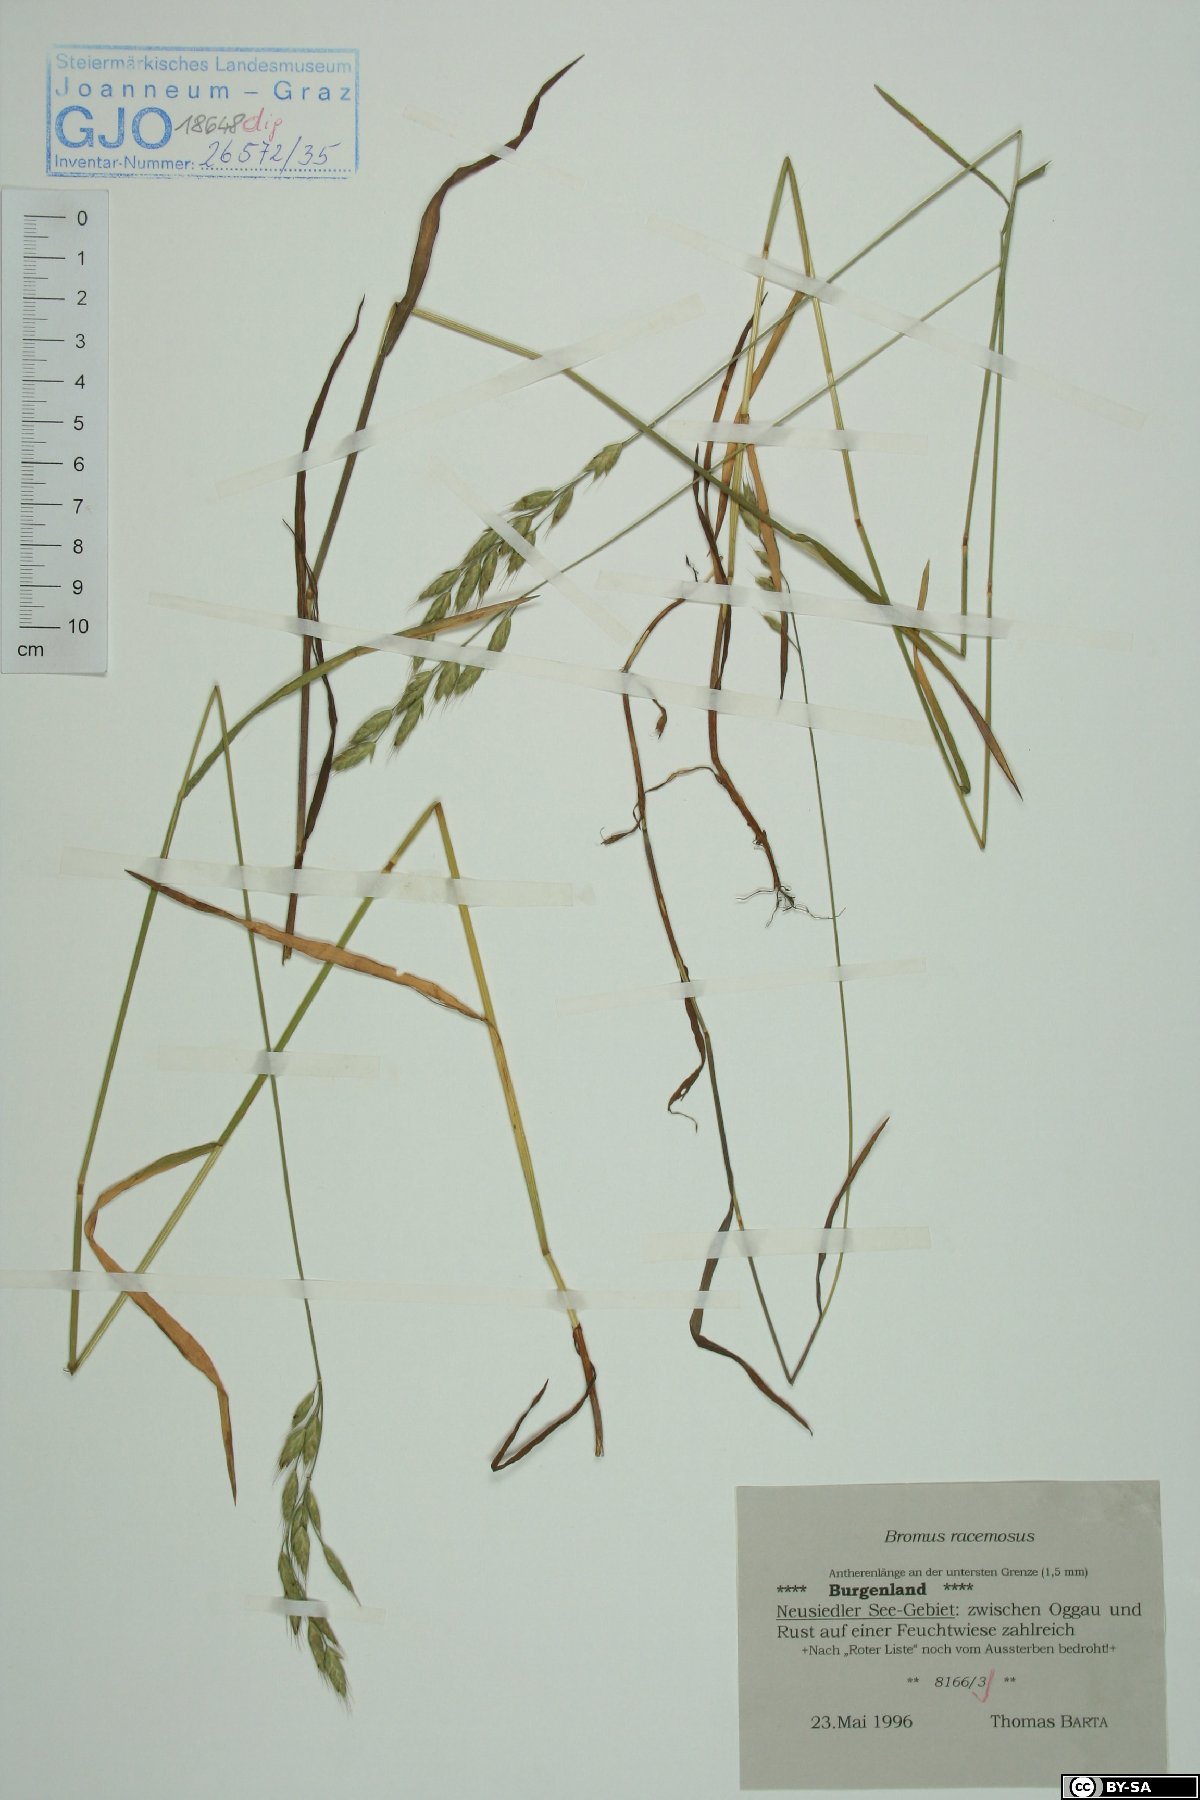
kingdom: Plantae
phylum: Tracheophyta
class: Liliopsida
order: Poales
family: Poaceae
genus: Bromus
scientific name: Bromus racemosus
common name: Bald brome
